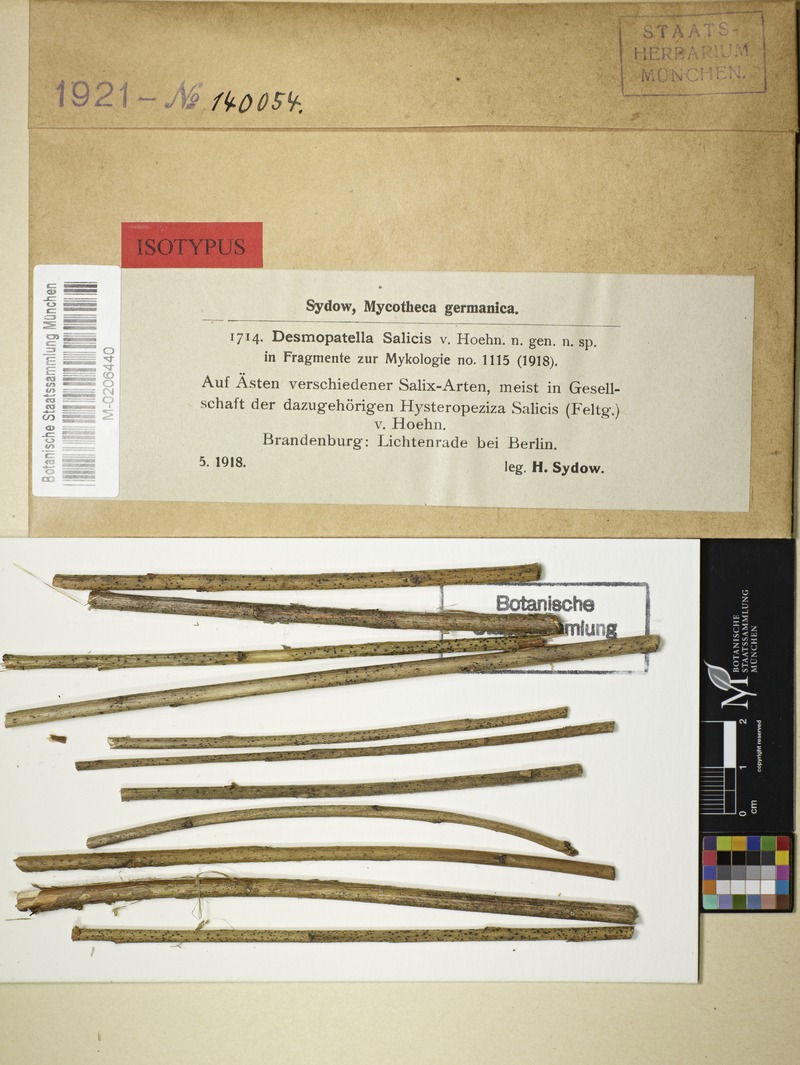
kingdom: Plantae
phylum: Tracheophyta
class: Magnoliopsida
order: Malpighiales
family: Salicaceae
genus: Salix
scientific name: Salix
